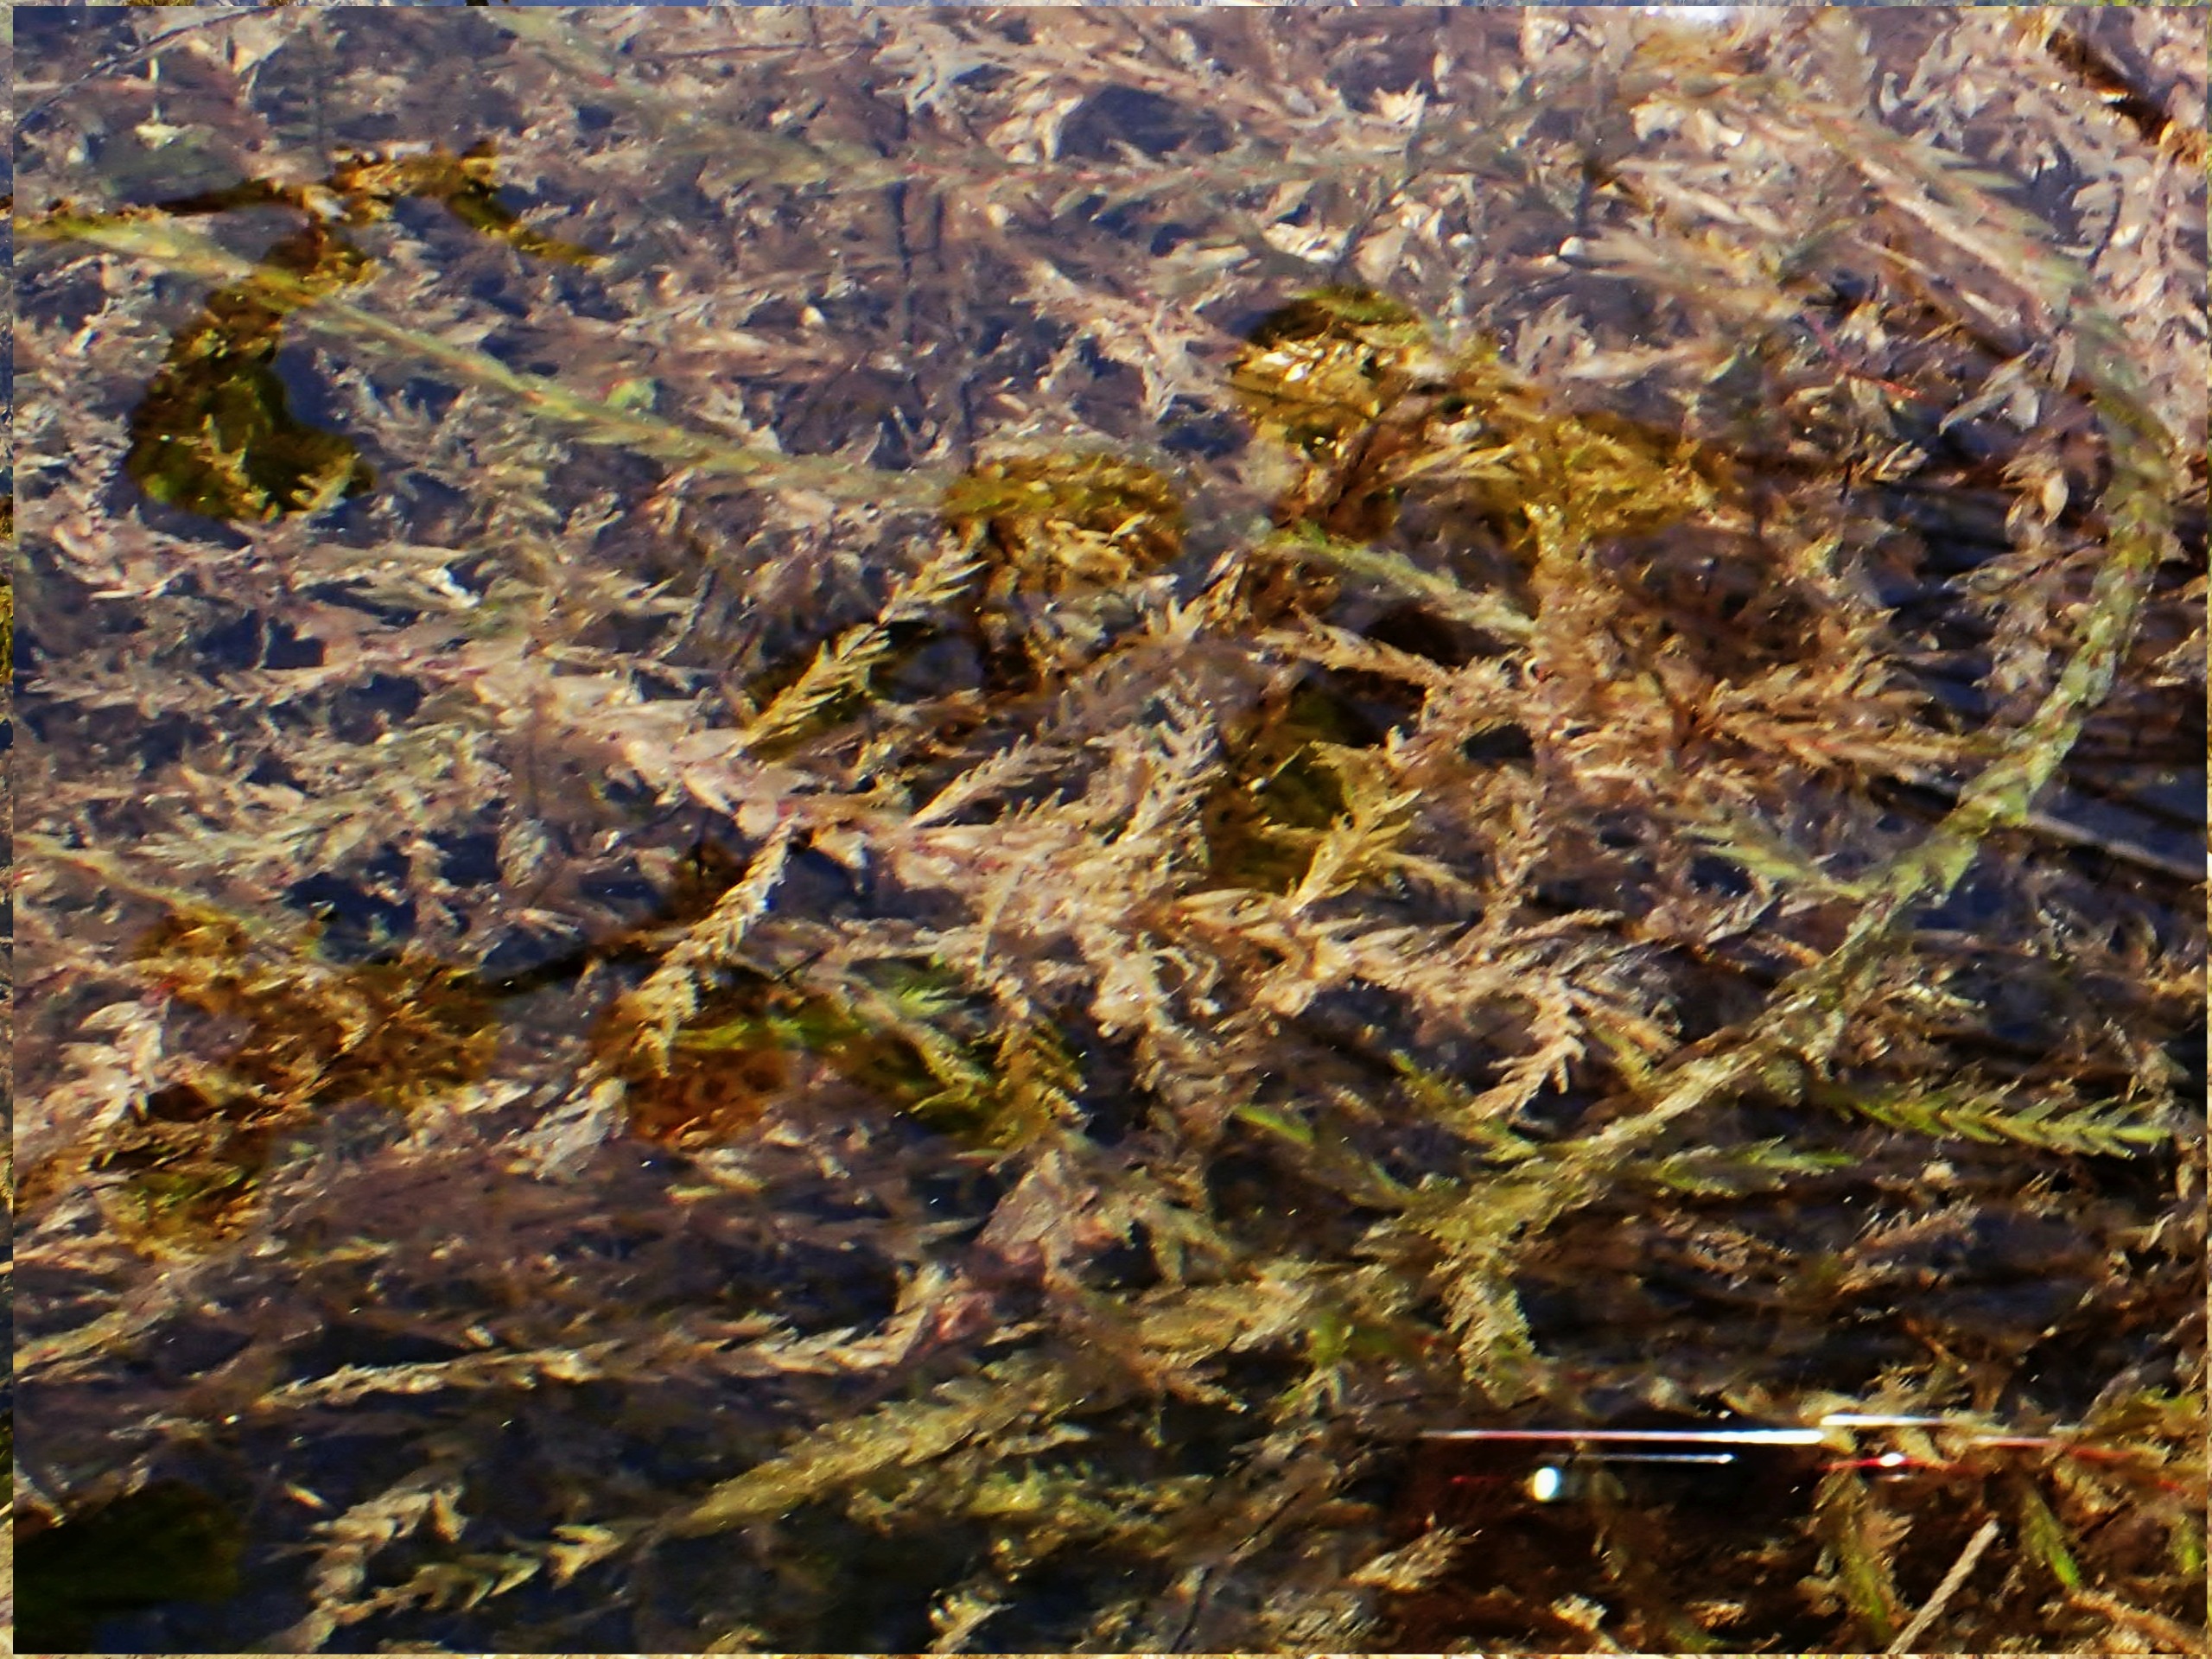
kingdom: Plantae
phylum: Bryophyta
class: Bryopsida
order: Hypnales
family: Fontinalaceae
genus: Fontinalis
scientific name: Fontinalis antipyretica
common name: Stor kildemos
